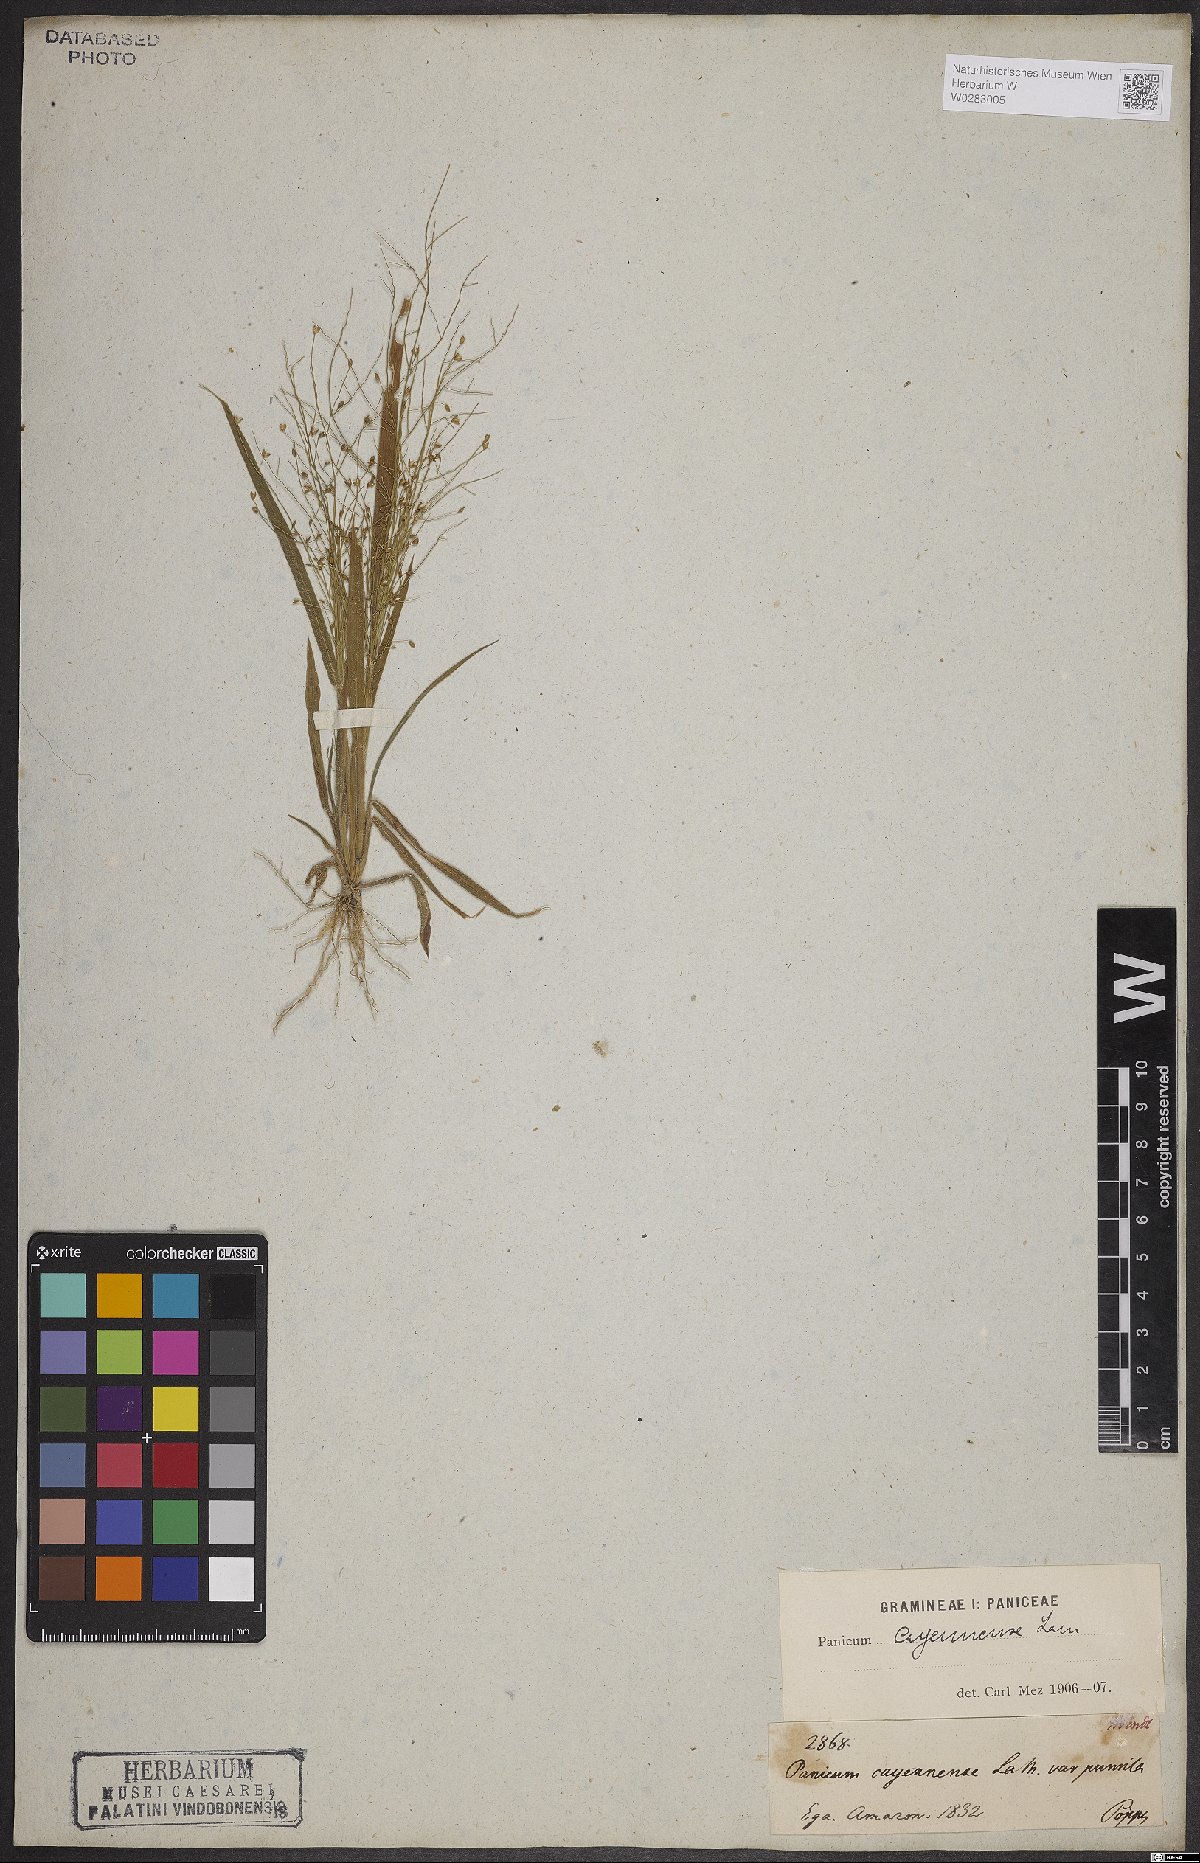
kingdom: Plantae
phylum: Tracheophyta
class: Liliopsida
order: Poales
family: Poaceae
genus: Panicum
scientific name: Panicum cayennense
